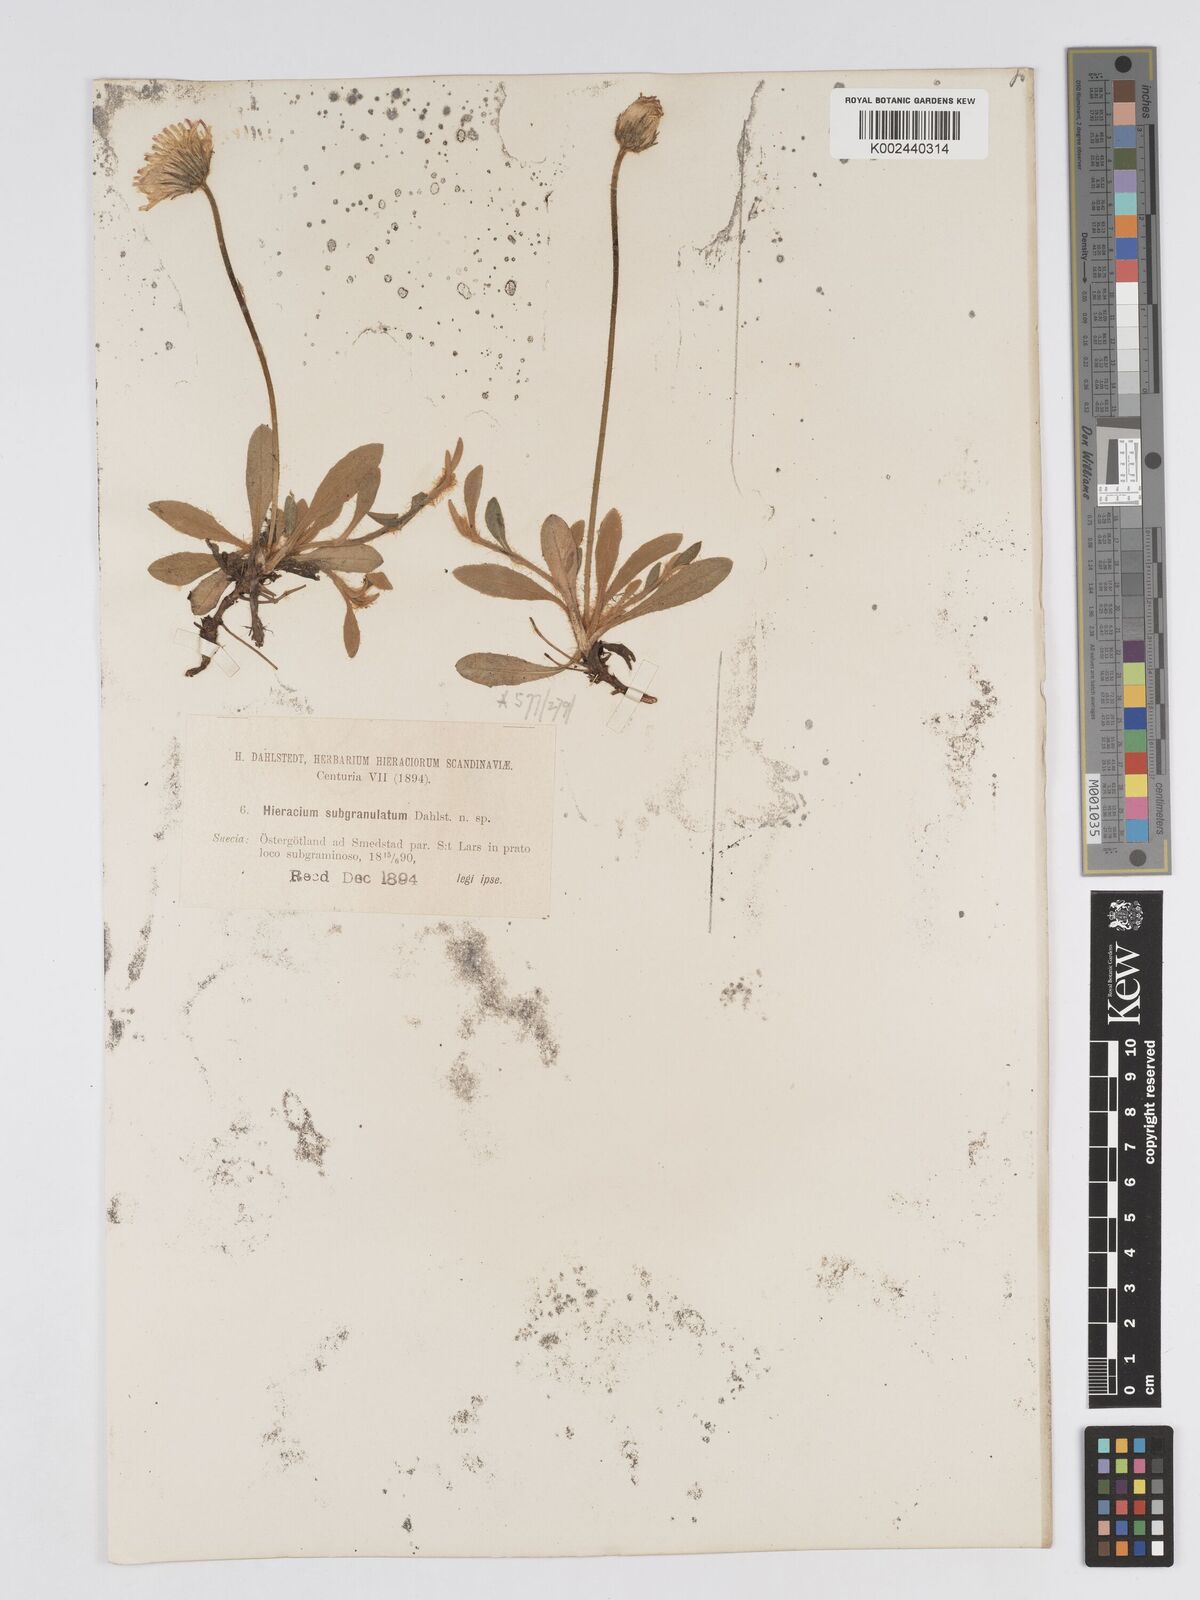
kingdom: Plantae
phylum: Tracheophyta
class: Magnoliopsida
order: Asterales
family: Asteraceae
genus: Pilosella
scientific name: Pilosella officinarum
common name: Mouse-ear hawkweed
